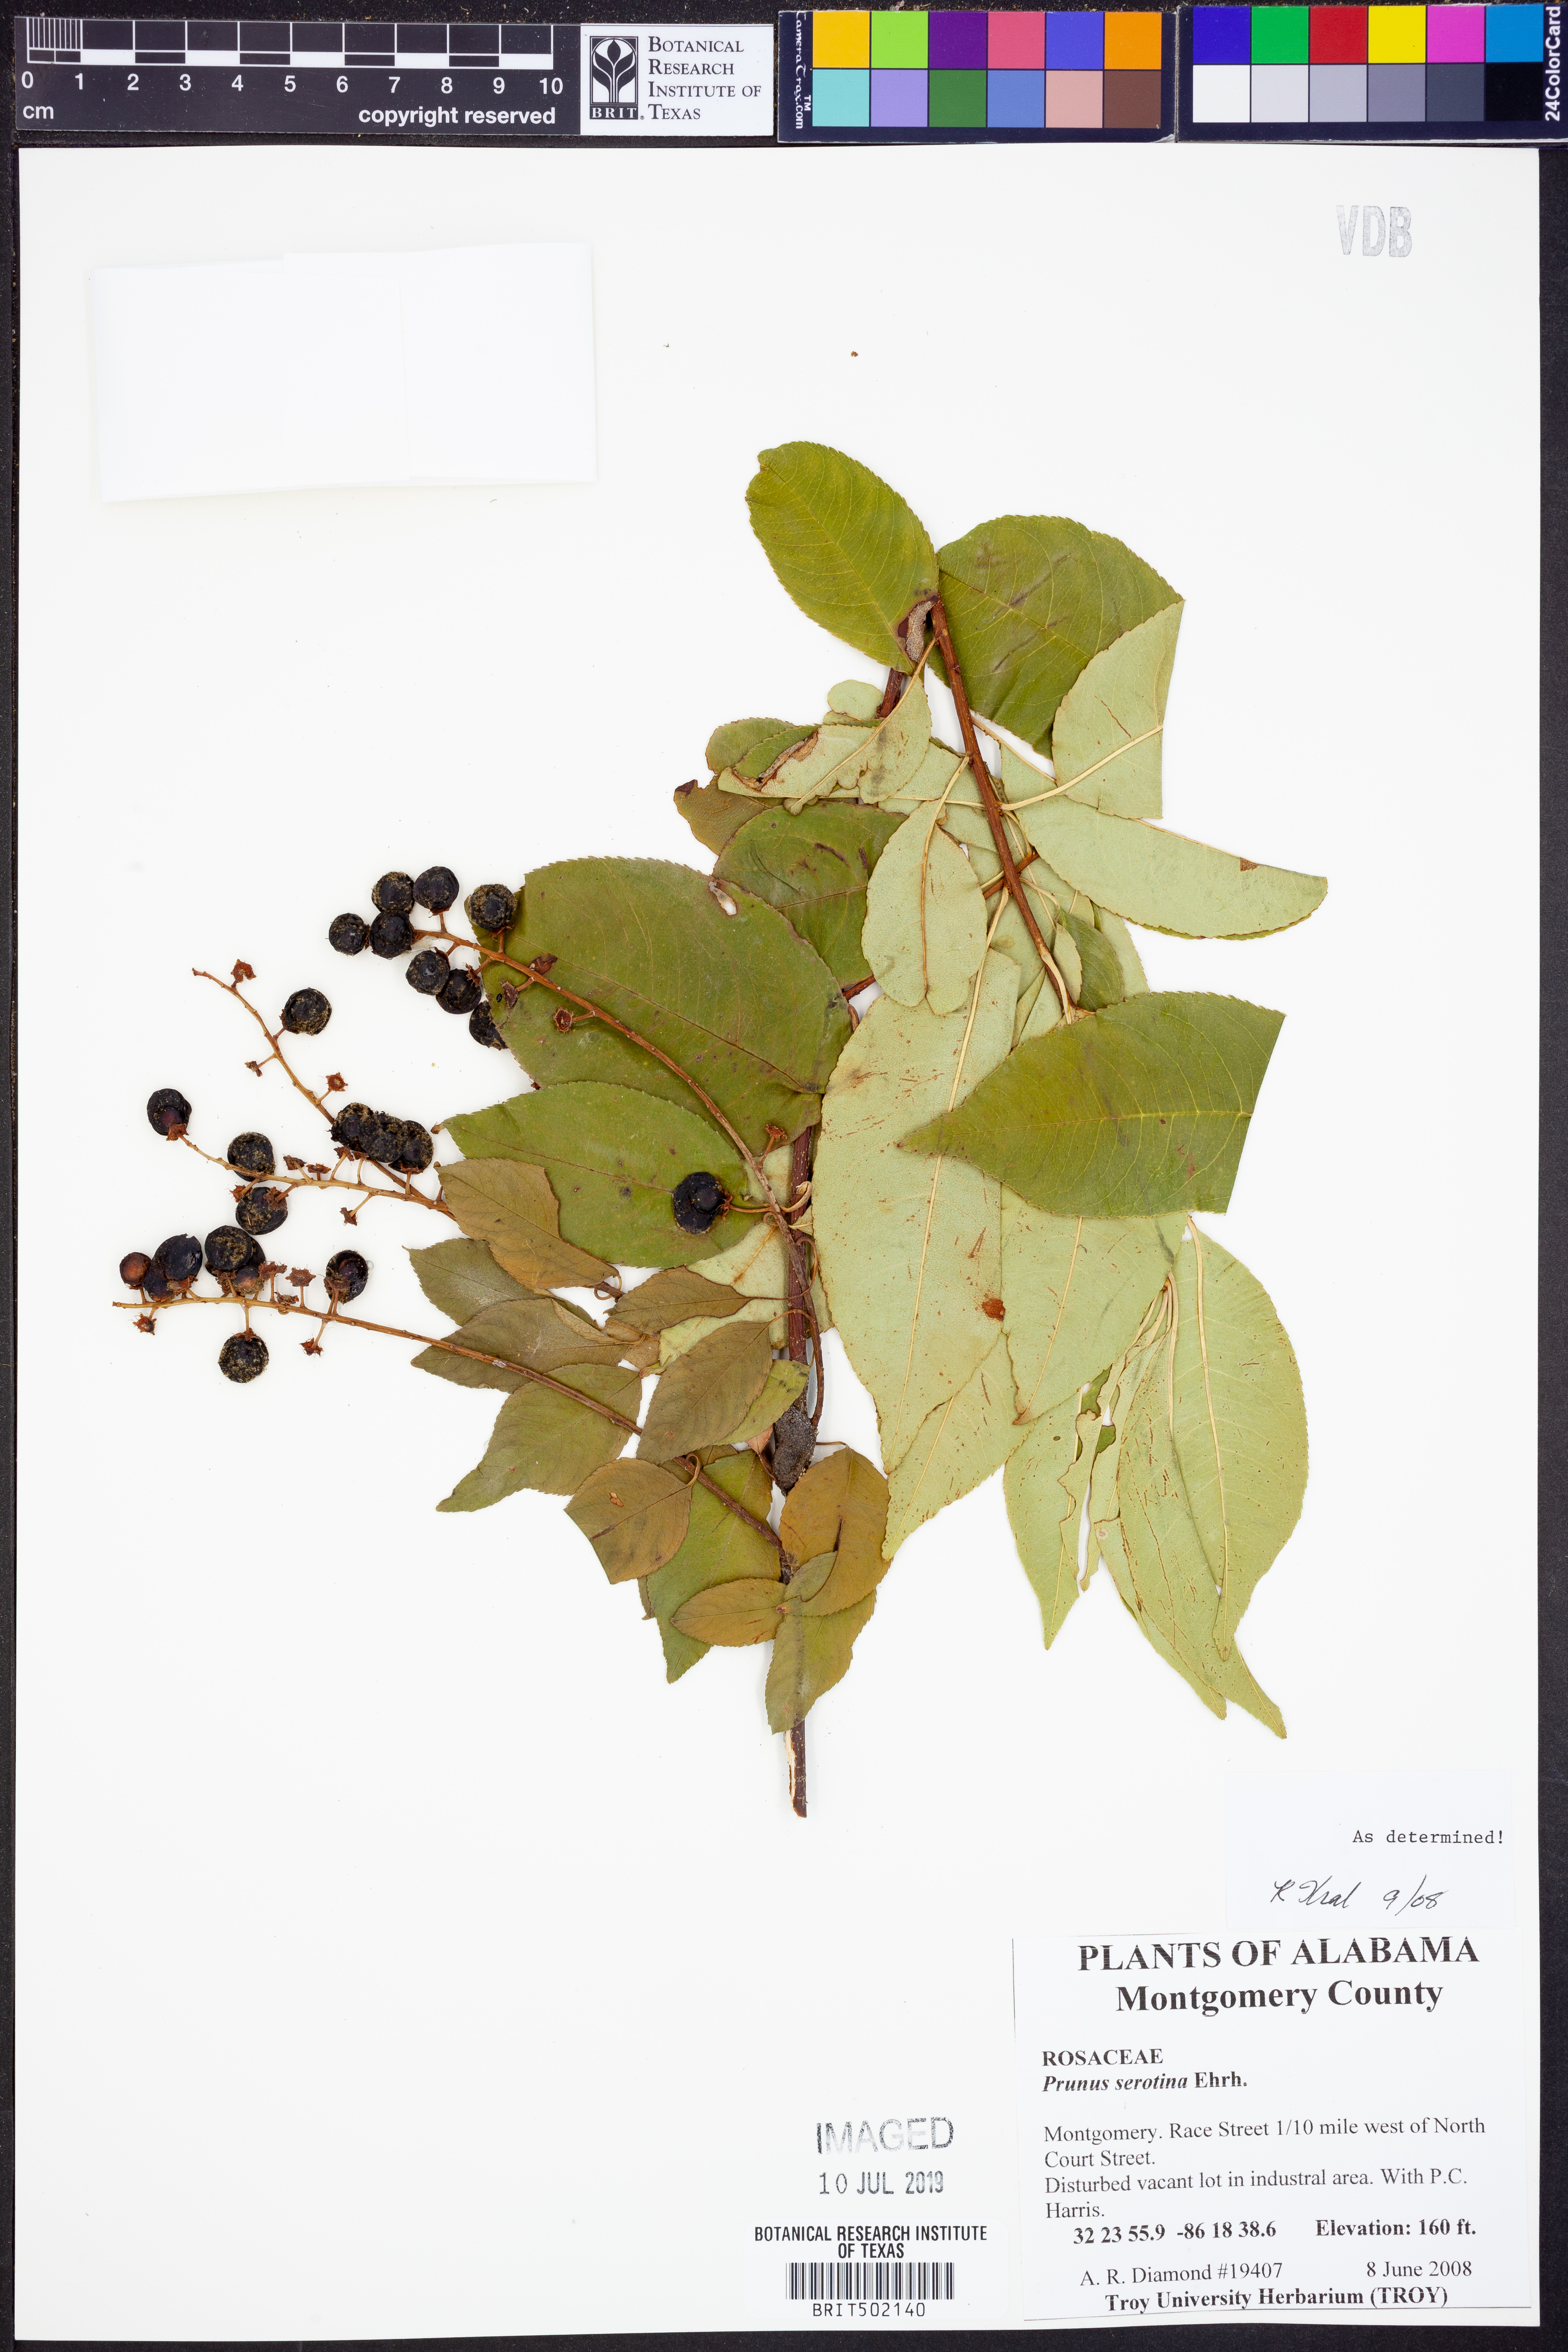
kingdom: Plantae
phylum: Tracheophyta
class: Magnoliopsida
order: Rosales
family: Rosaceae
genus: Prunus
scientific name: Prunus serotina
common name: Black cherry
